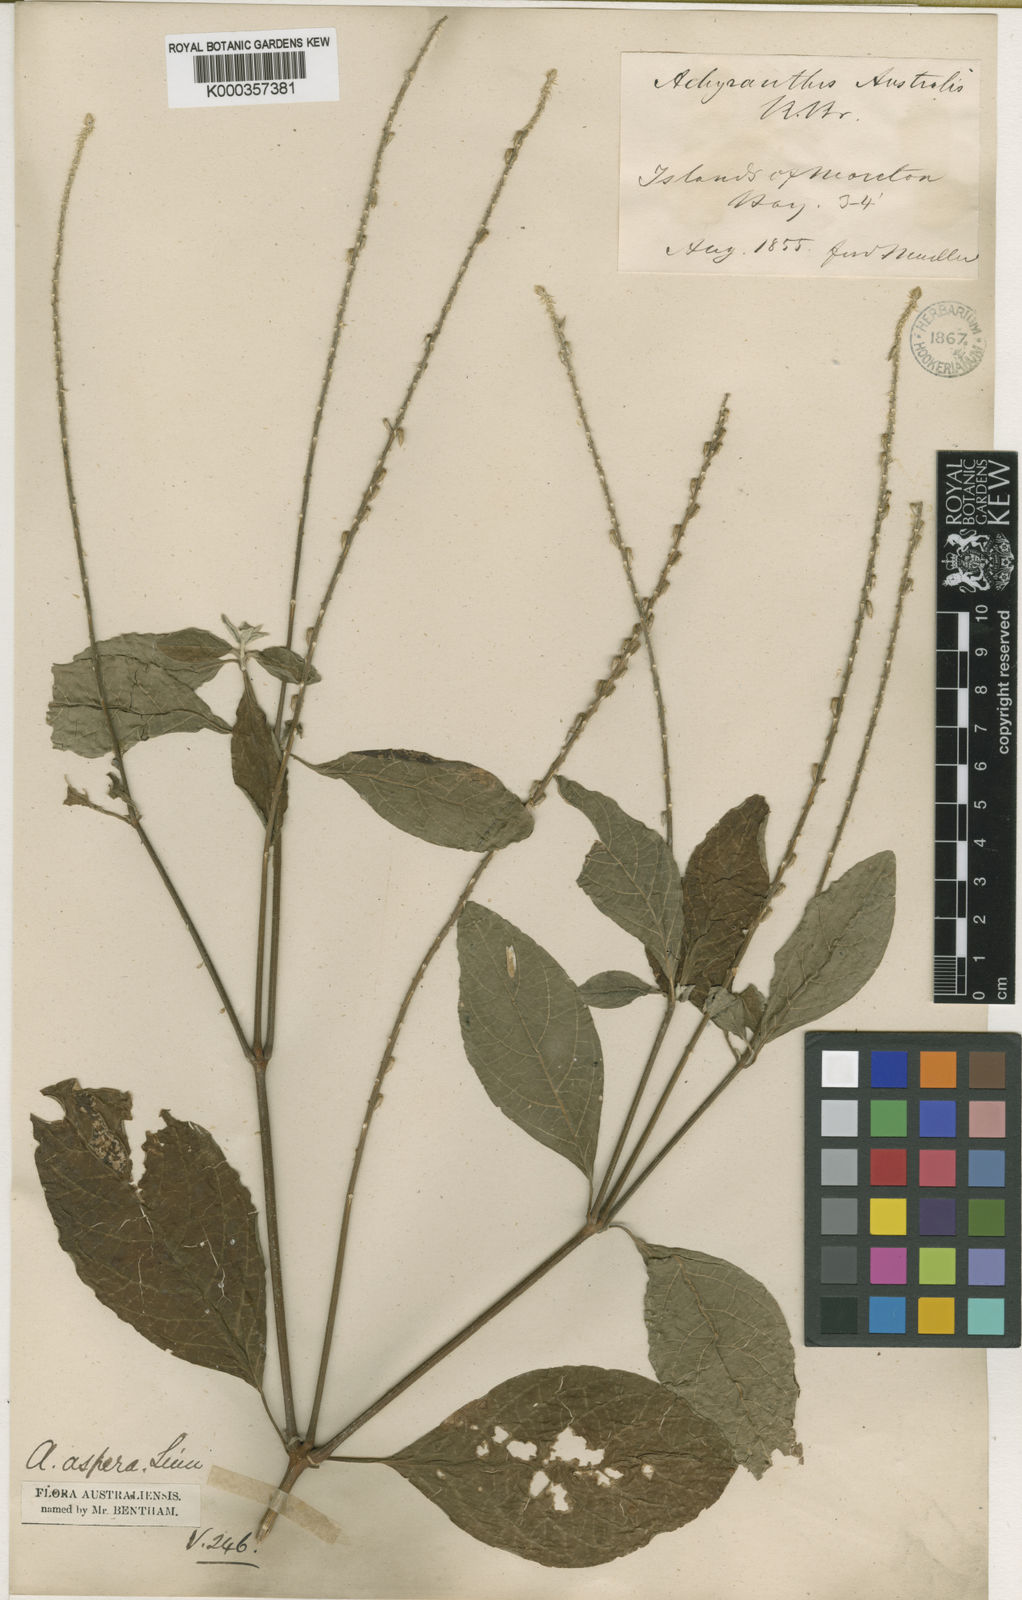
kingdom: Plantae
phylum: Tracheophyta
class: Magnoliopsida
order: Caryophyllales
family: Amaranthaceae
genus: Achyranthes
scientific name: Achyranthes aspera
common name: Devil's horsewhip
